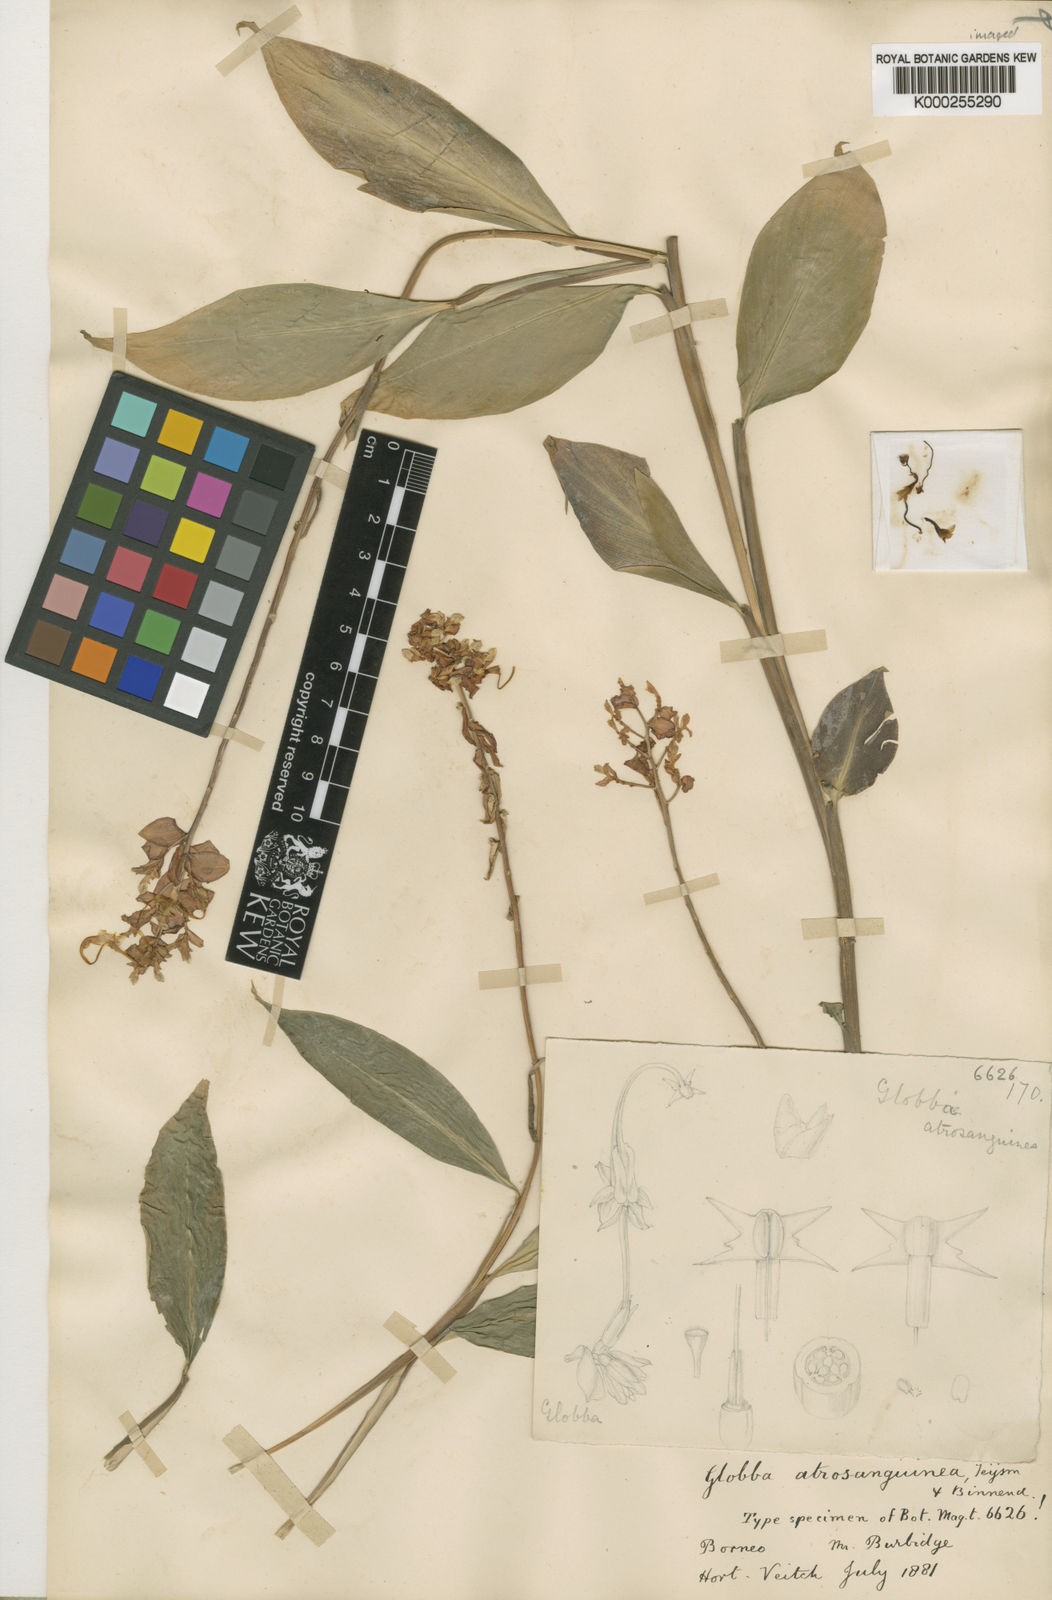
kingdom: Plantae
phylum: Tracheophyta
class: Liliopsida
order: Zingiberales
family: Zingiberaceae
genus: Globba
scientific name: Globba atrosanguinea
